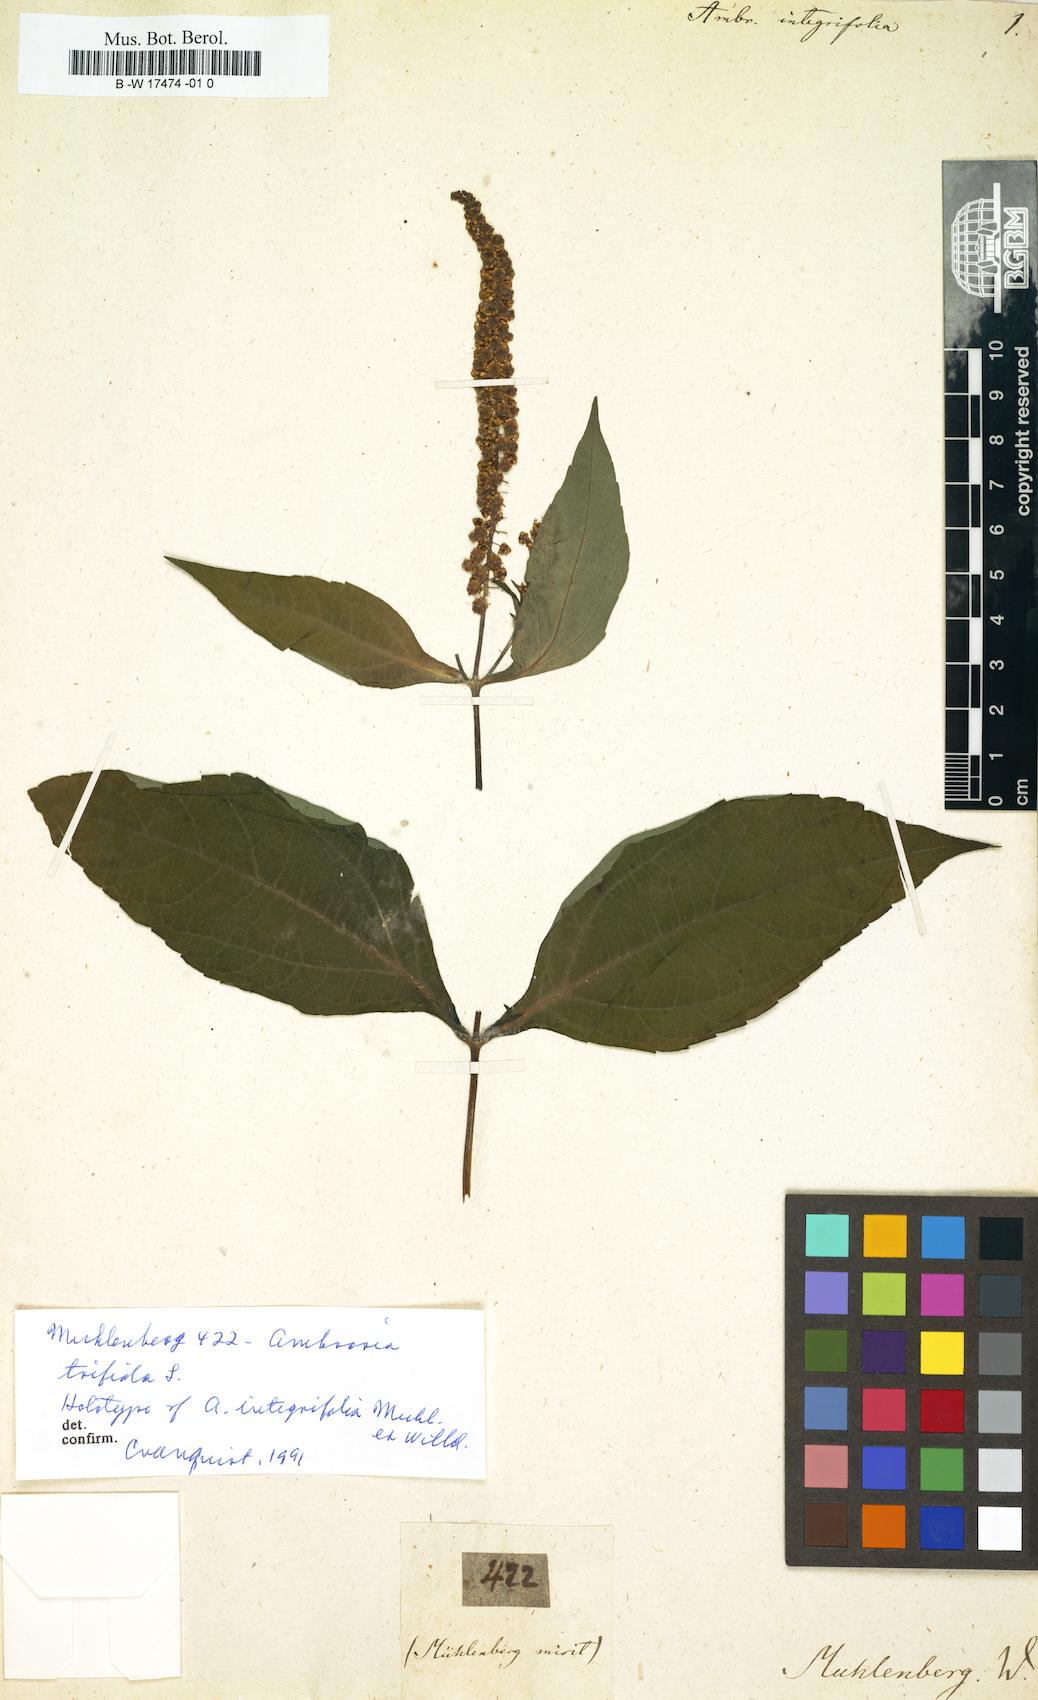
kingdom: Plantae
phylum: Tracheophyta
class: Magnoliopsida
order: Asterales
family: Asteraceae
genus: Ambrosia
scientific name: Ambrosia trifida
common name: Giant ragweed
